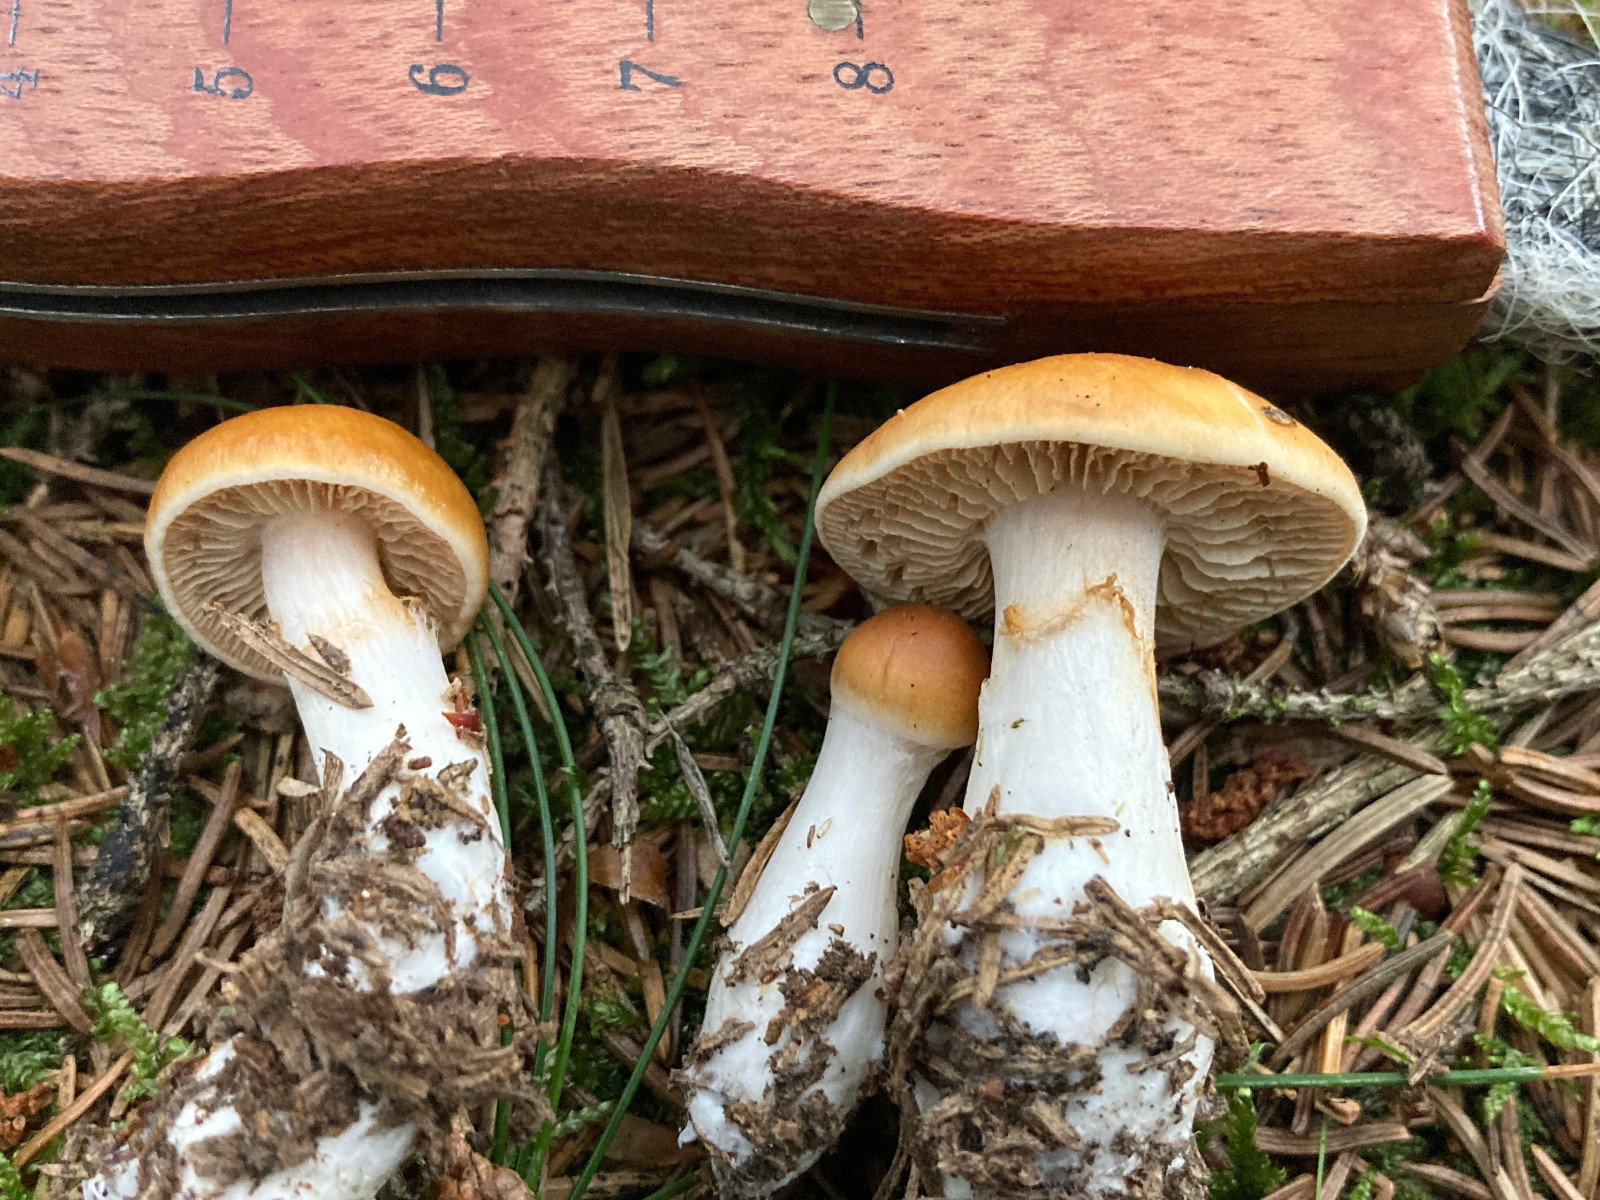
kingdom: Fungi
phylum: Basidiomycota
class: Agaricomycetes
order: Agaricales
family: Cortinariaceae
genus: Thaxterogaster
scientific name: Thaxterogaster
